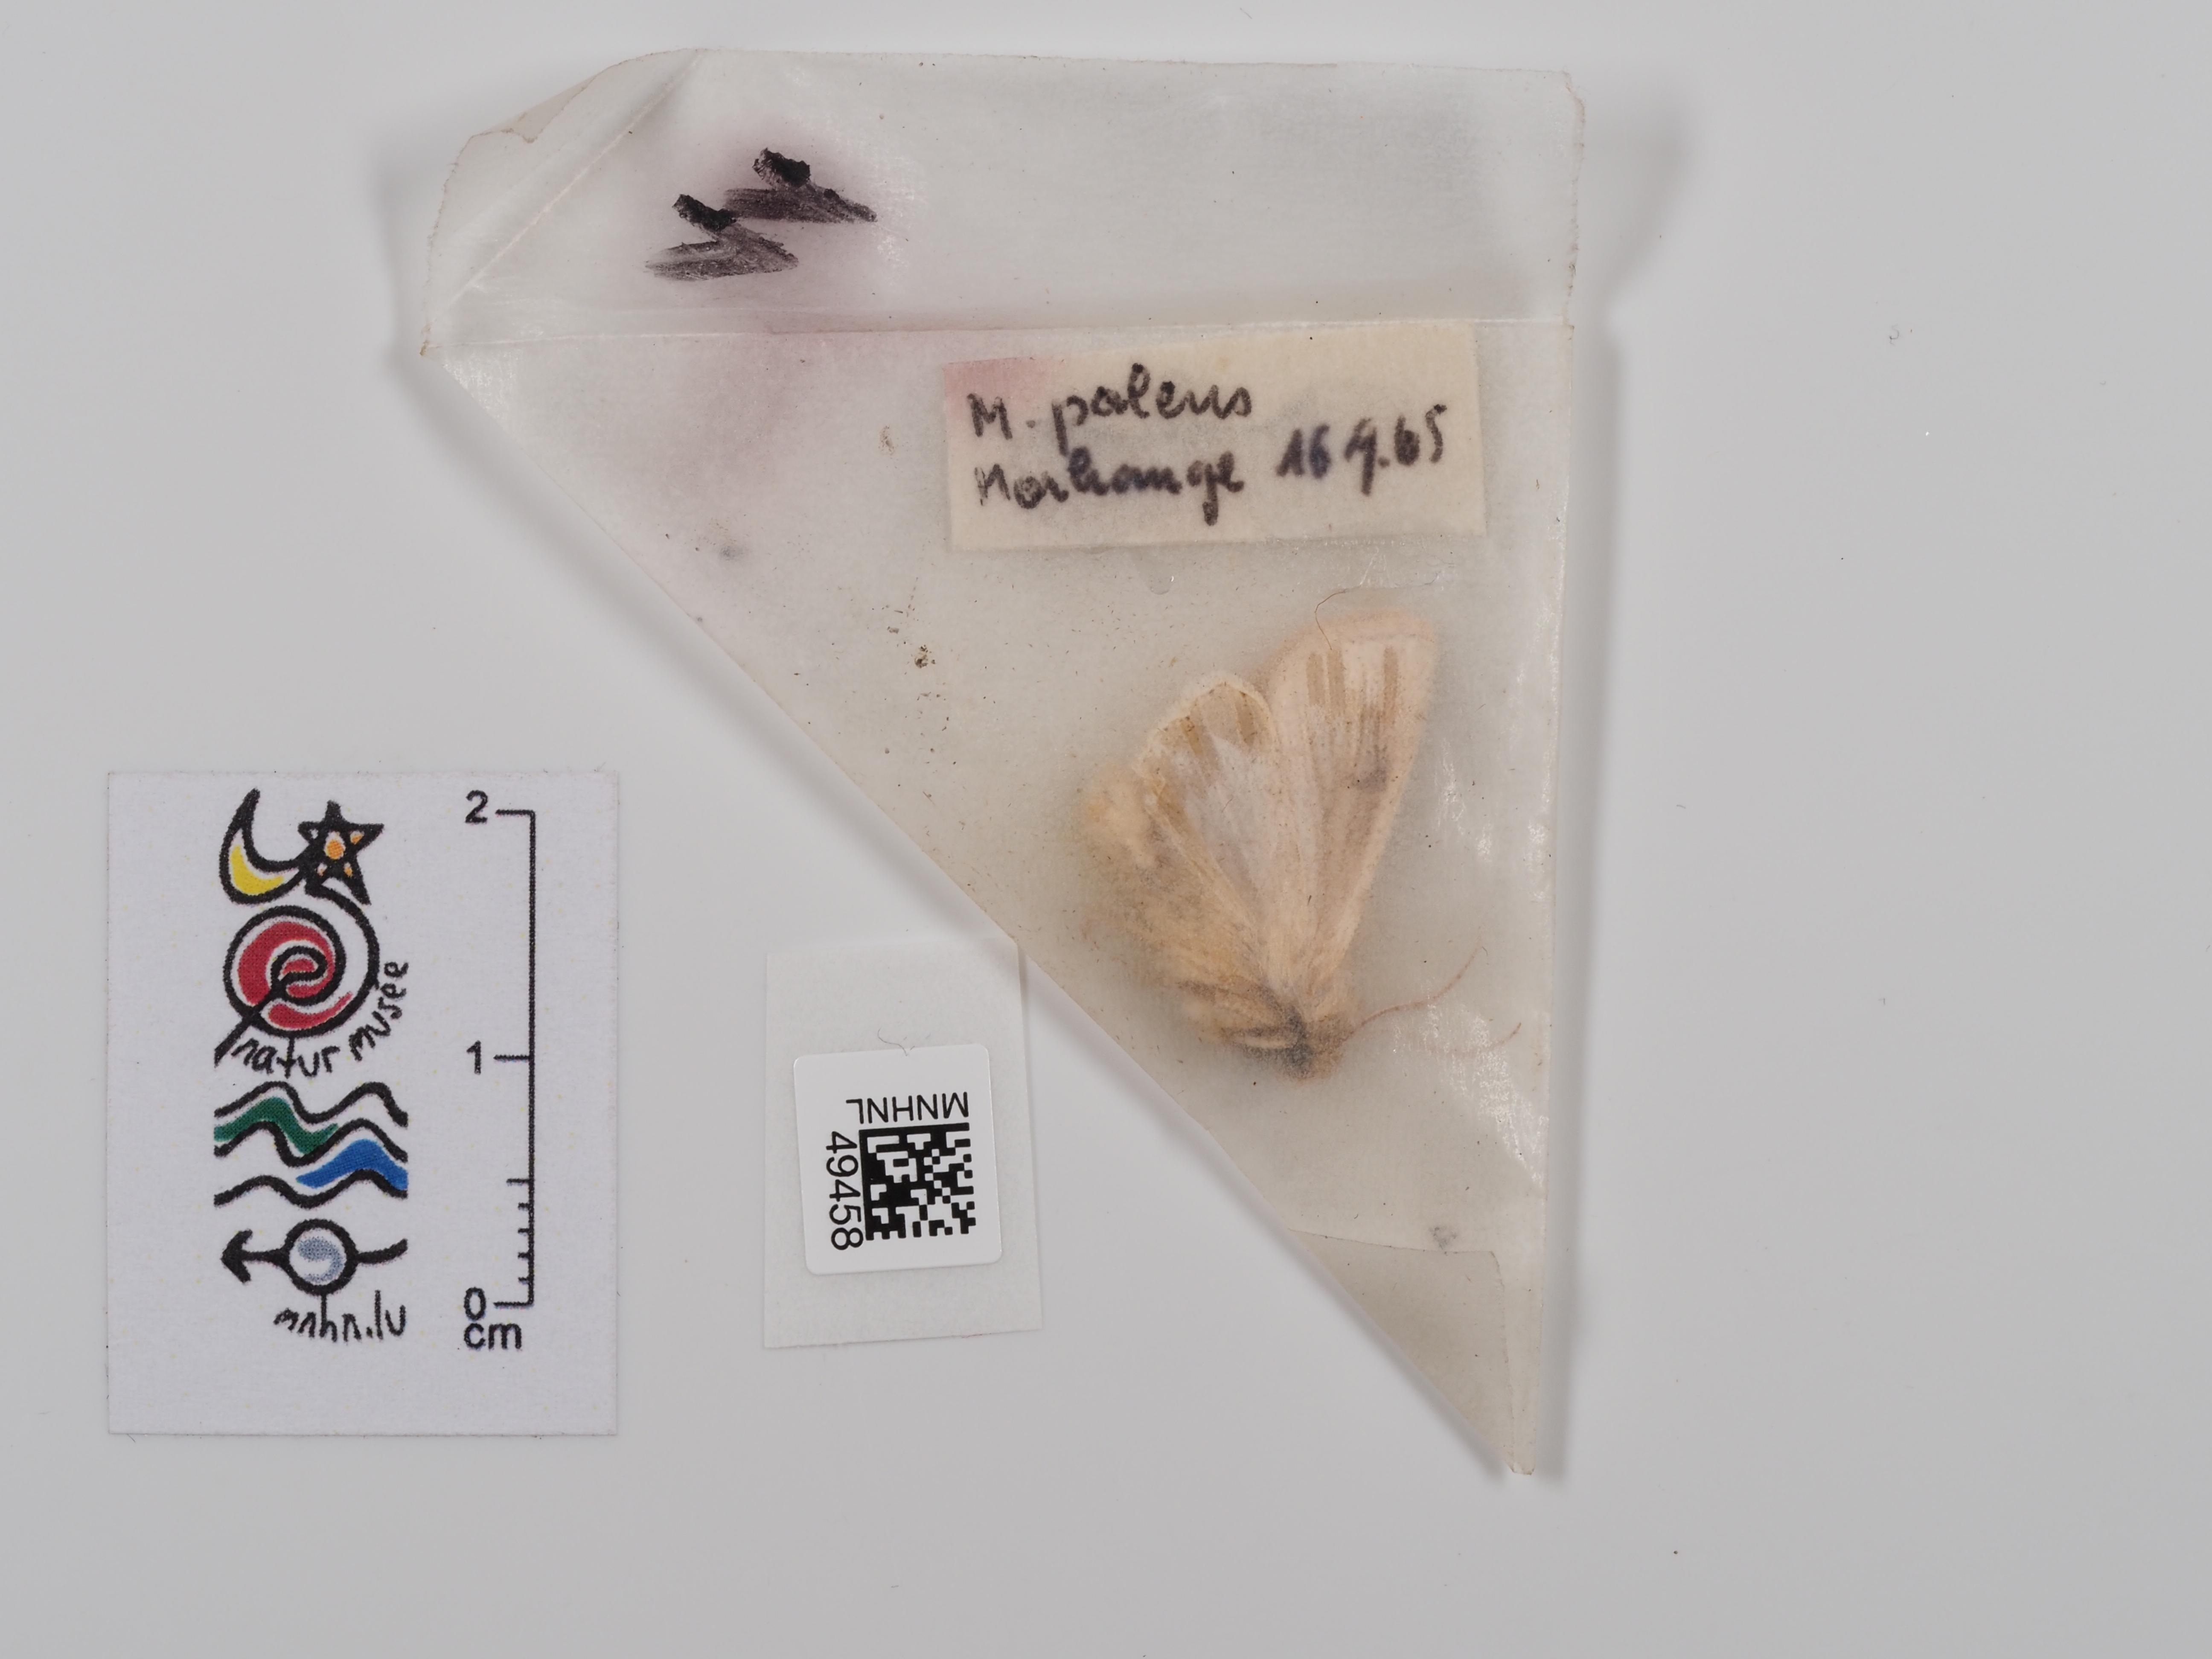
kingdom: Animalia
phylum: Arthropoda
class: Insecta
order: Lepidoptera
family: Noctuidae
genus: Mythimna
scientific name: Mythimna pallens
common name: Common wainscot
